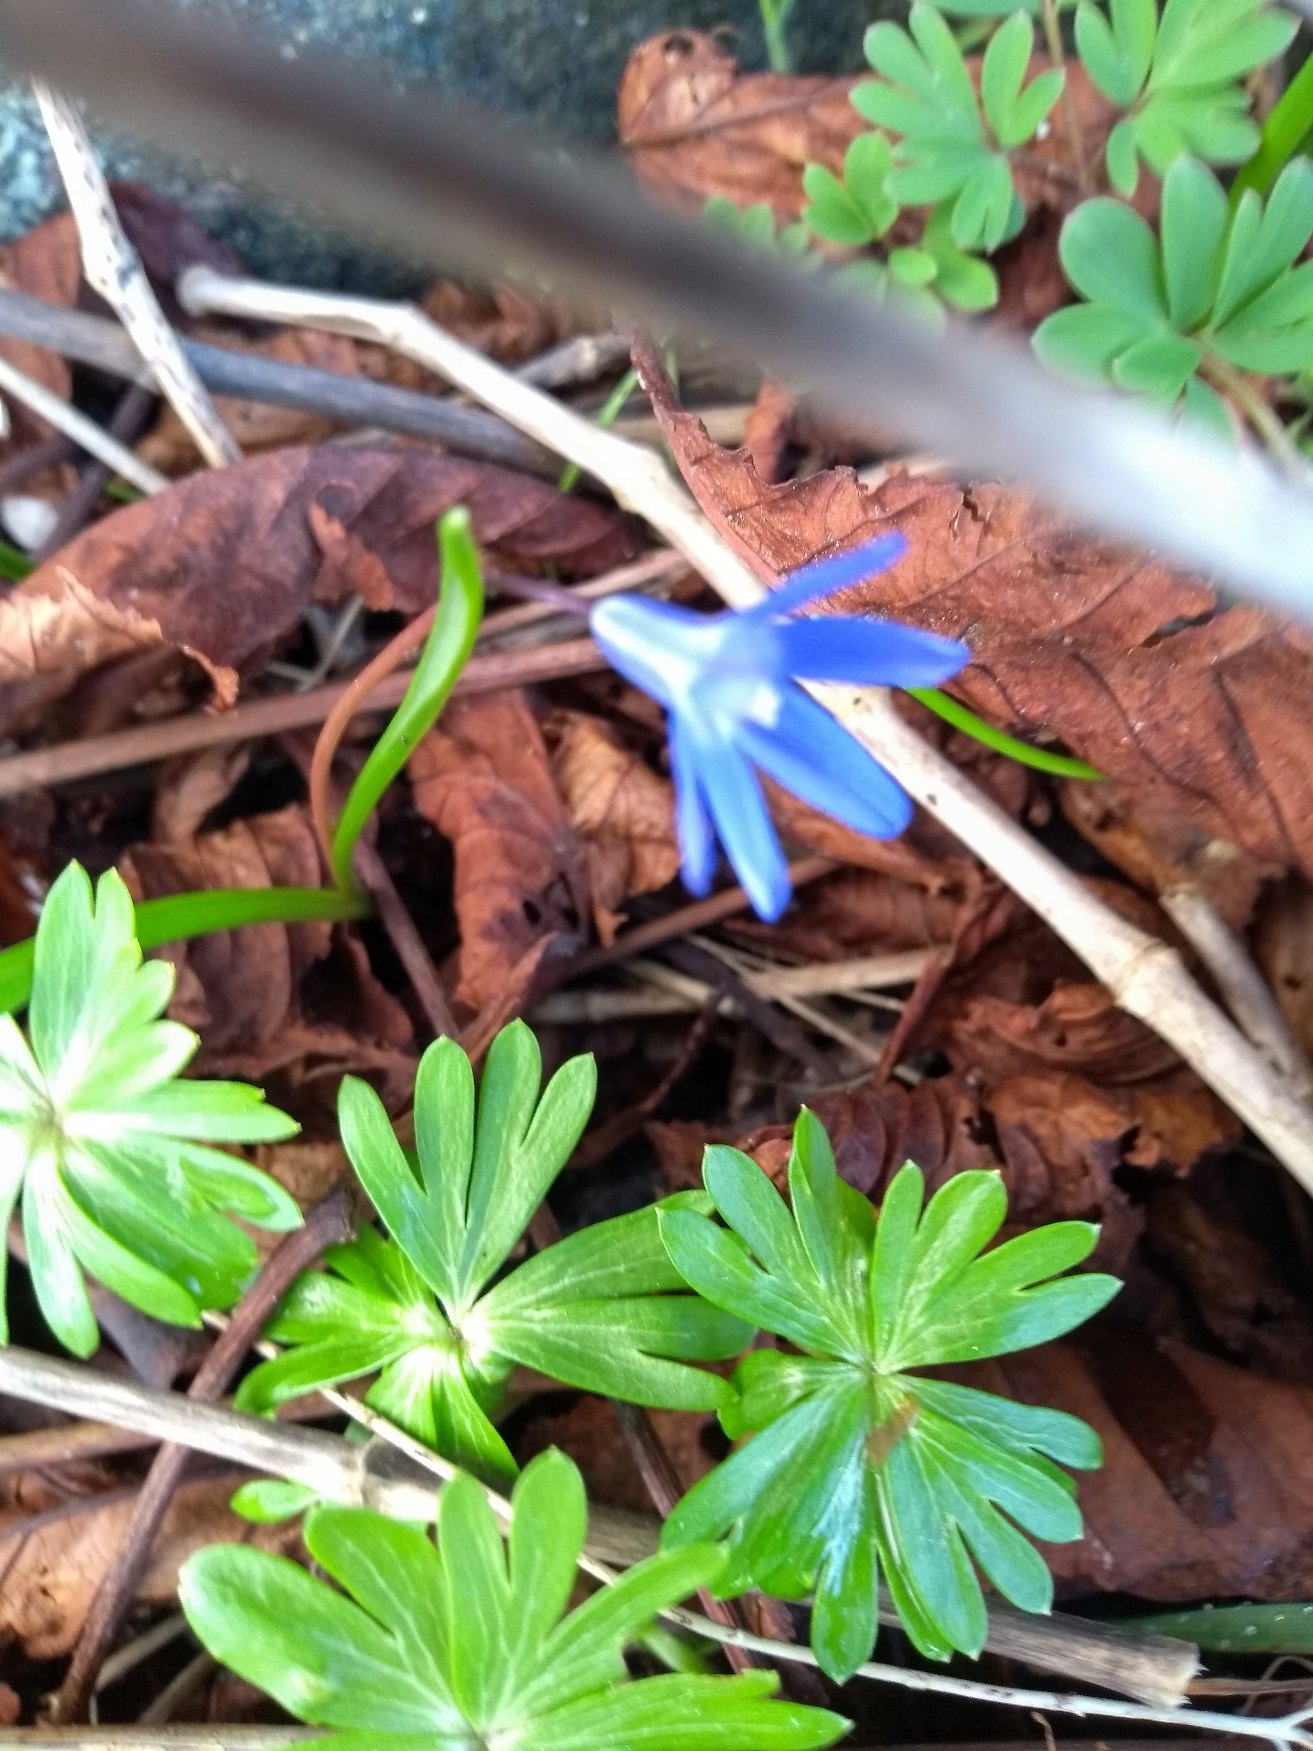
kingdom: Plantae
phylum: Tracheophyta
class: Liliopsida
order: Asparagales
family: Asparagaceae
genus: Scilla
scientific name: Scilla forbesii
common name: Almindelig snepryd
